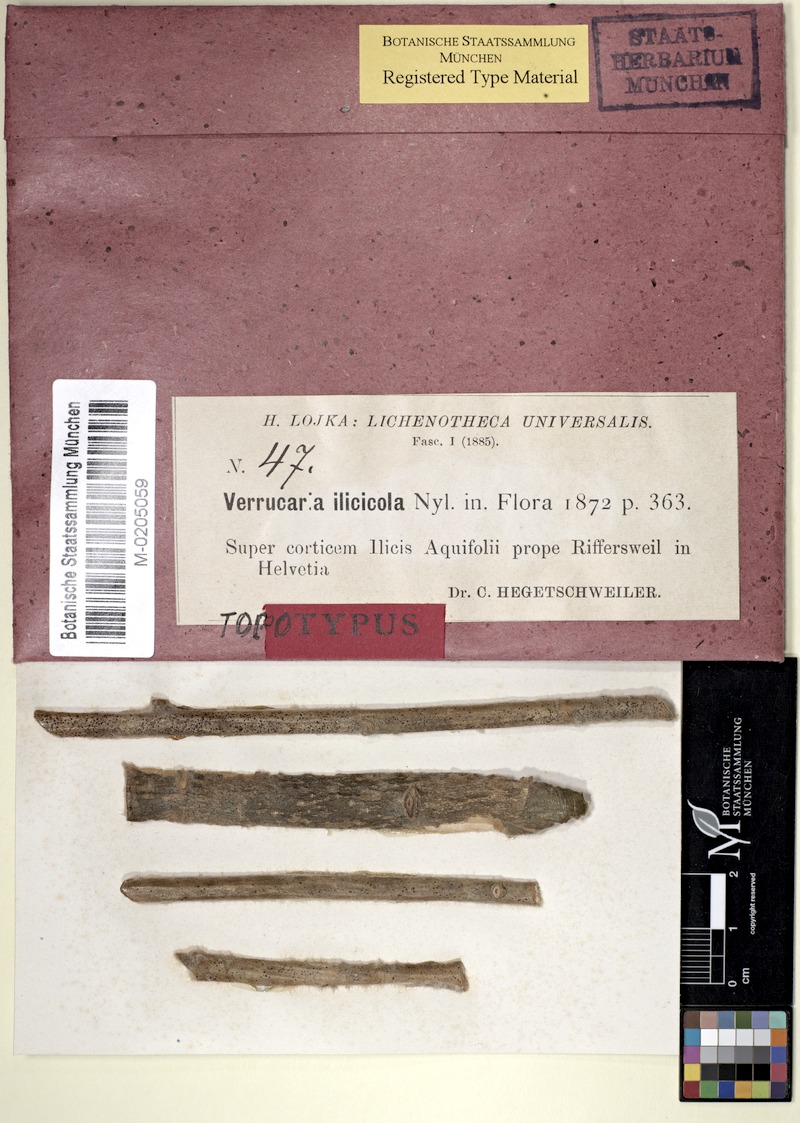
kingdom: Fungi
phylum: Ascomycota
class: Dothideomycetes
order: Pleosporales
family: Arthopyreniaceae
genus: Arthopyrenia
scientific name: Arthopyrenia ilicicola
